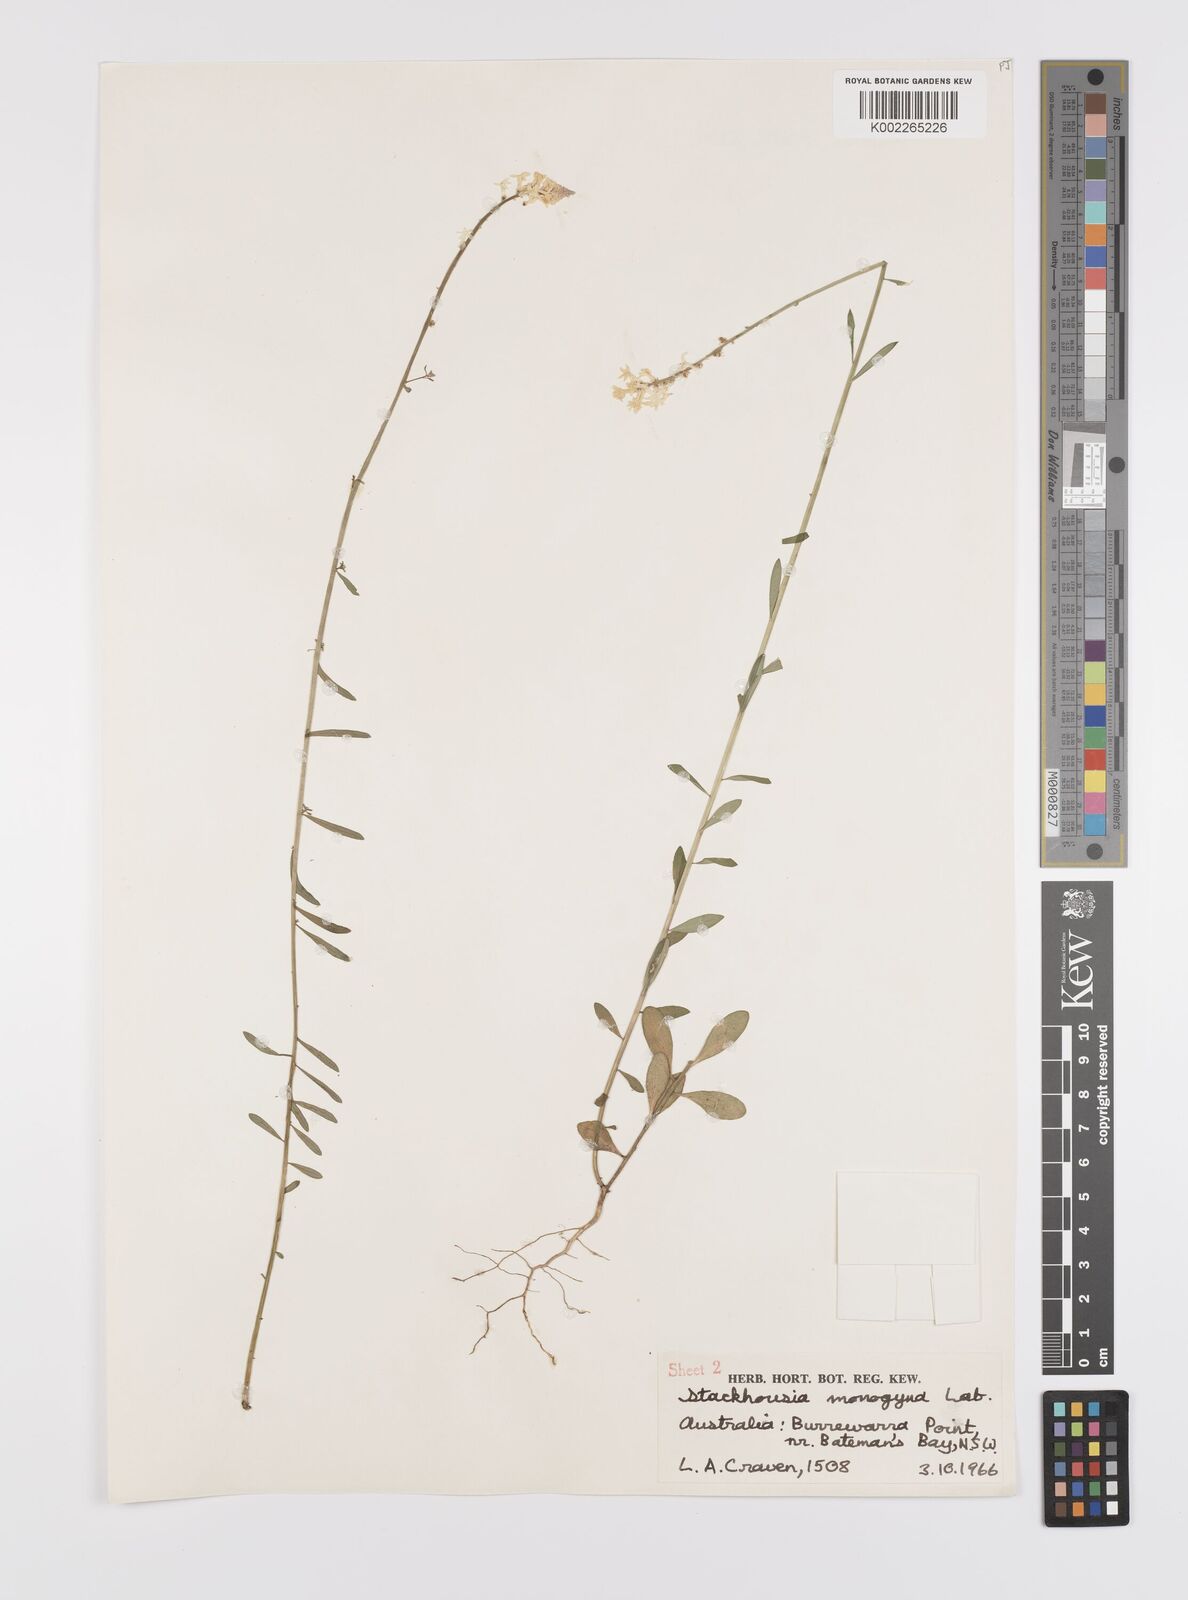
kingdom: Plantae
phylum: Tracheophyta
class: Magnoliopsida
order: Celastrales
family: Celastraceae
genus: Stackhousia
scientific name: Stackhousia monogyna
